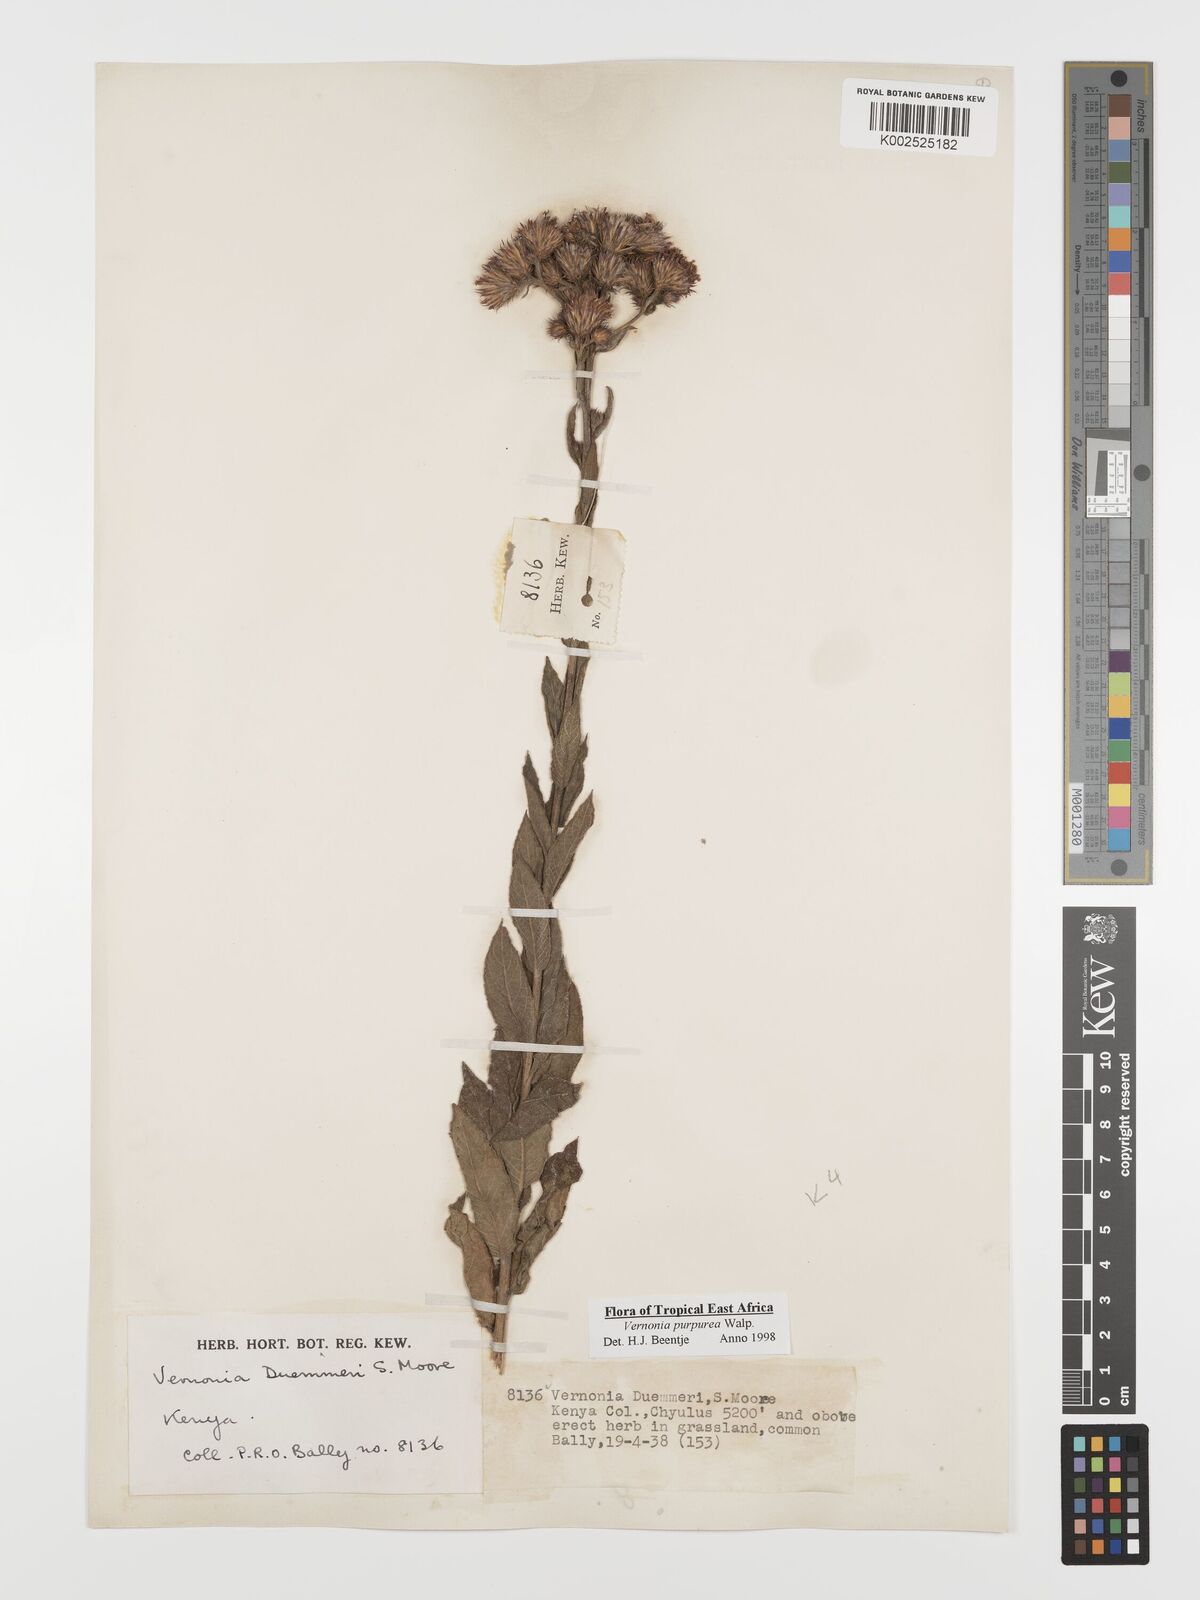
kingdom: Plantae
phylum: Tracheophyta
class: Magnoliopsida
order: Asterales
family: Asteraceae
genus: Nothovernonia
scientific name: Nothovernonia purpurea
